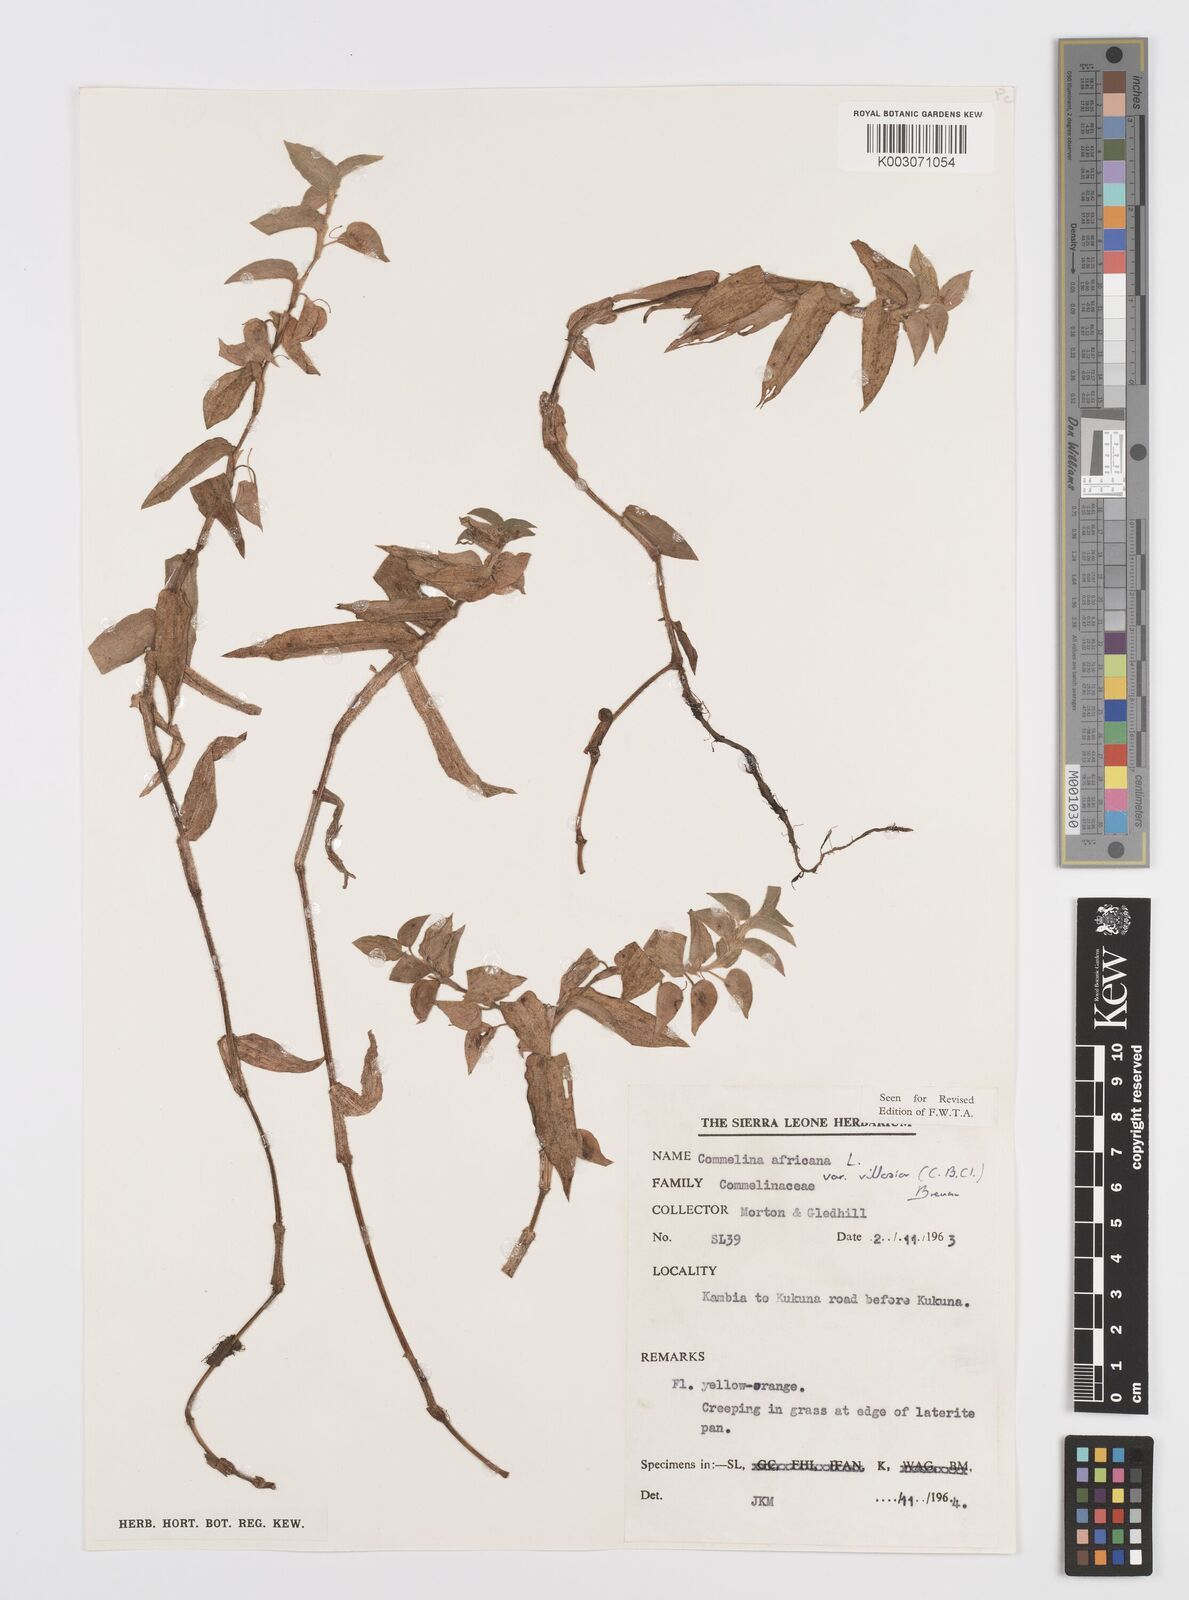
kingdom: Plantae
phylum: Tracheophyta
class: Liliopsida
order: Commelinales
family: Commelinaceae
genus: Commelina
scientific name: Commelina africana
